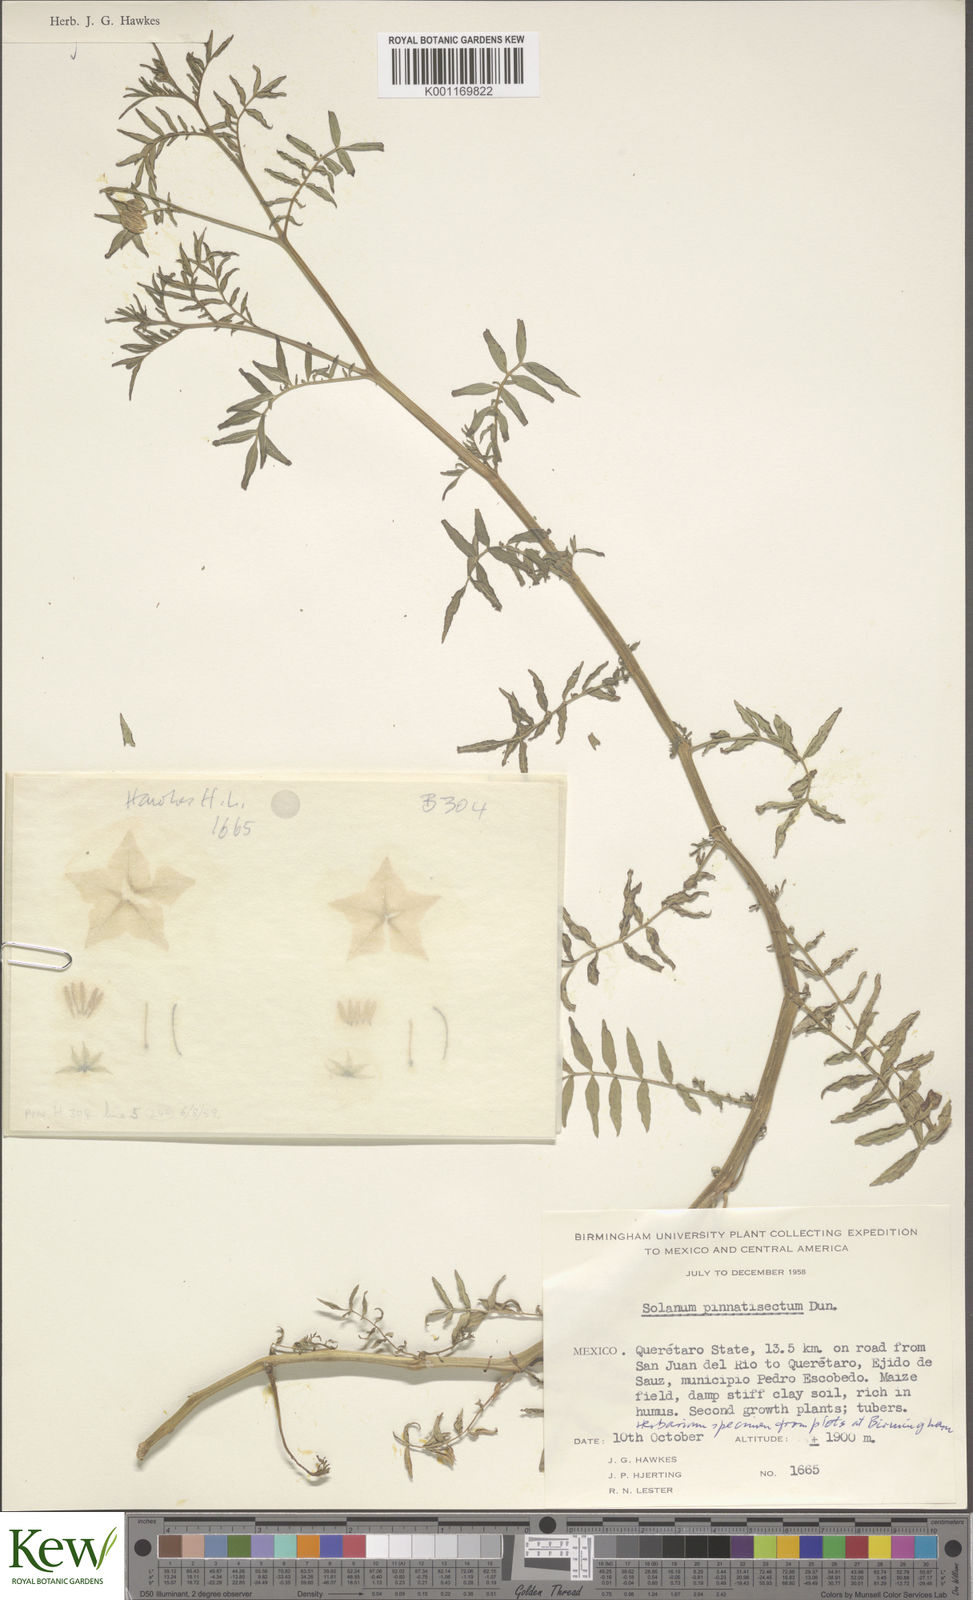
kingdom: Plantae
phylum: Tracheophyta
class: Magnoliopsida
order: Solanales
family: Solanaceae
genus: Solanum
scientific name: Solanum pinnatum
